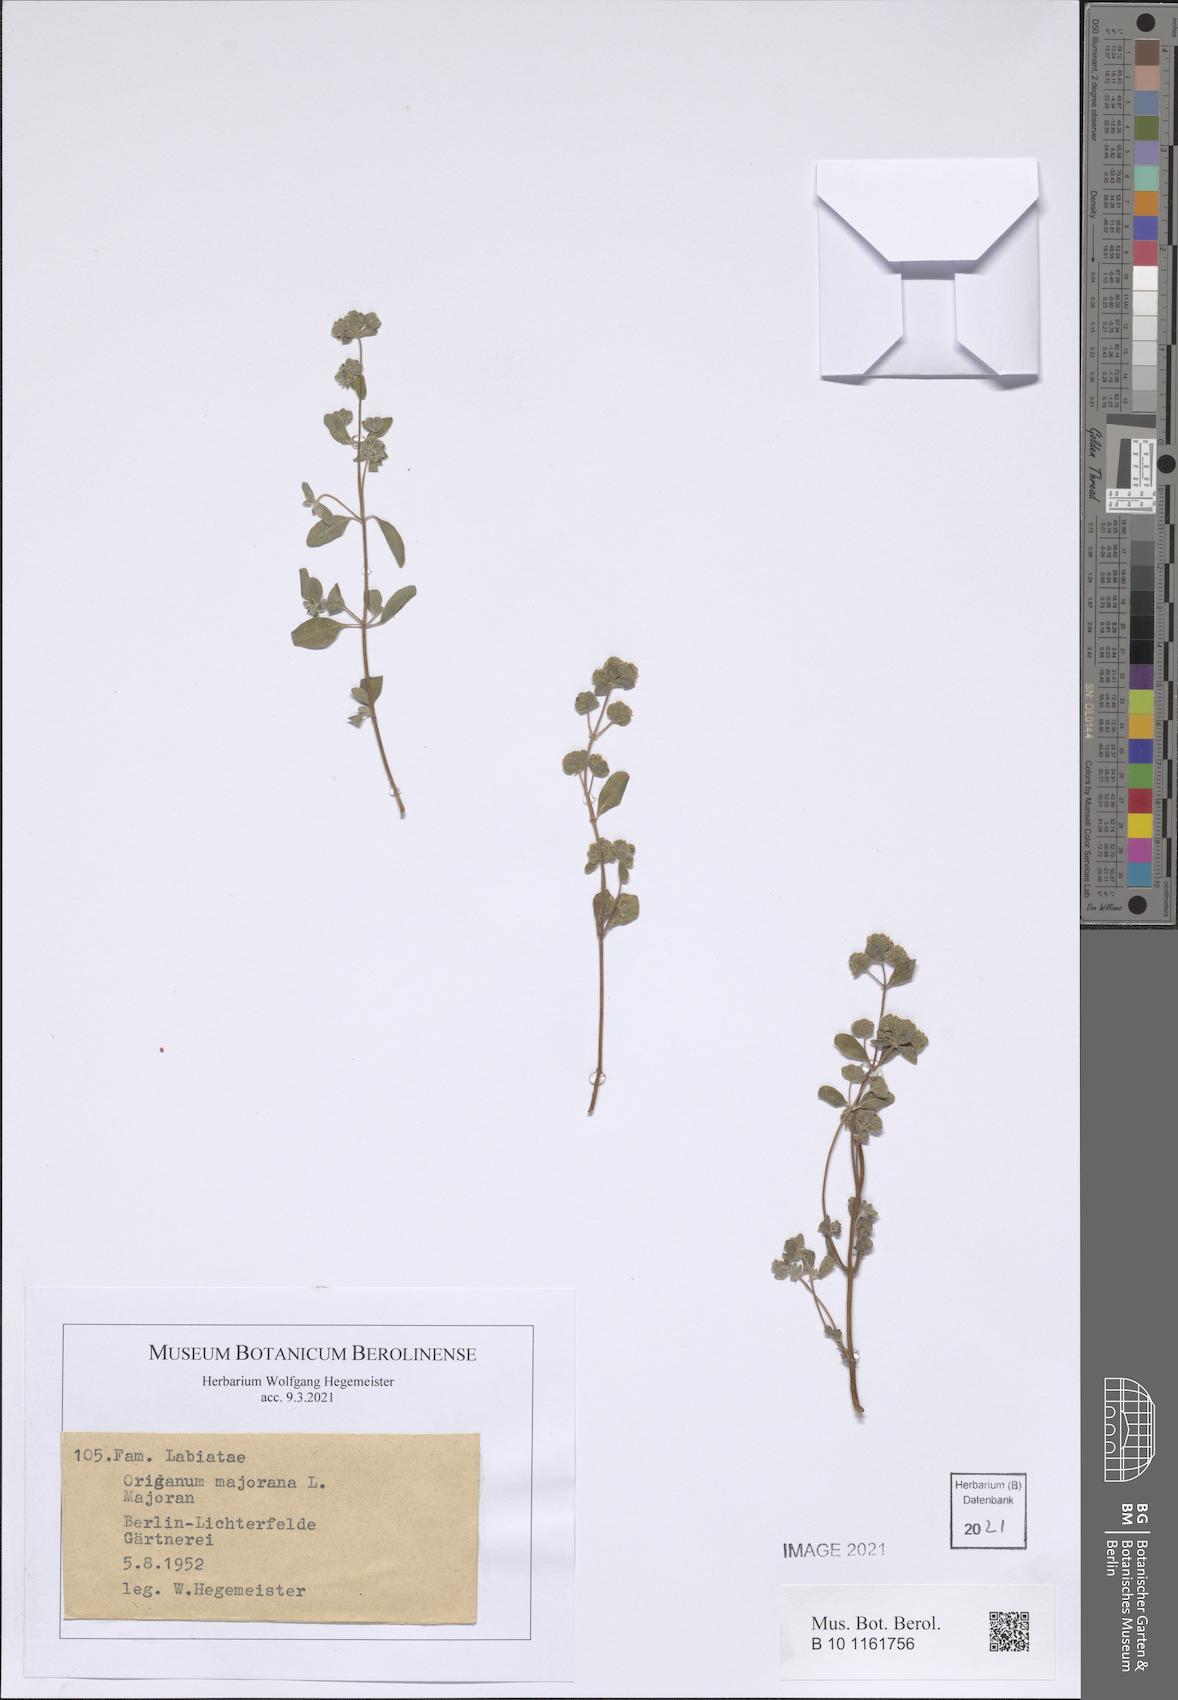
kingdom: Plantae
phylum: Tracheophyta
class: Magnoliopsida
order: Lamiales
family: Lamiaceae
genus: Origanum
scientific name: Origanum majorana
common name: Sweet marjoram
